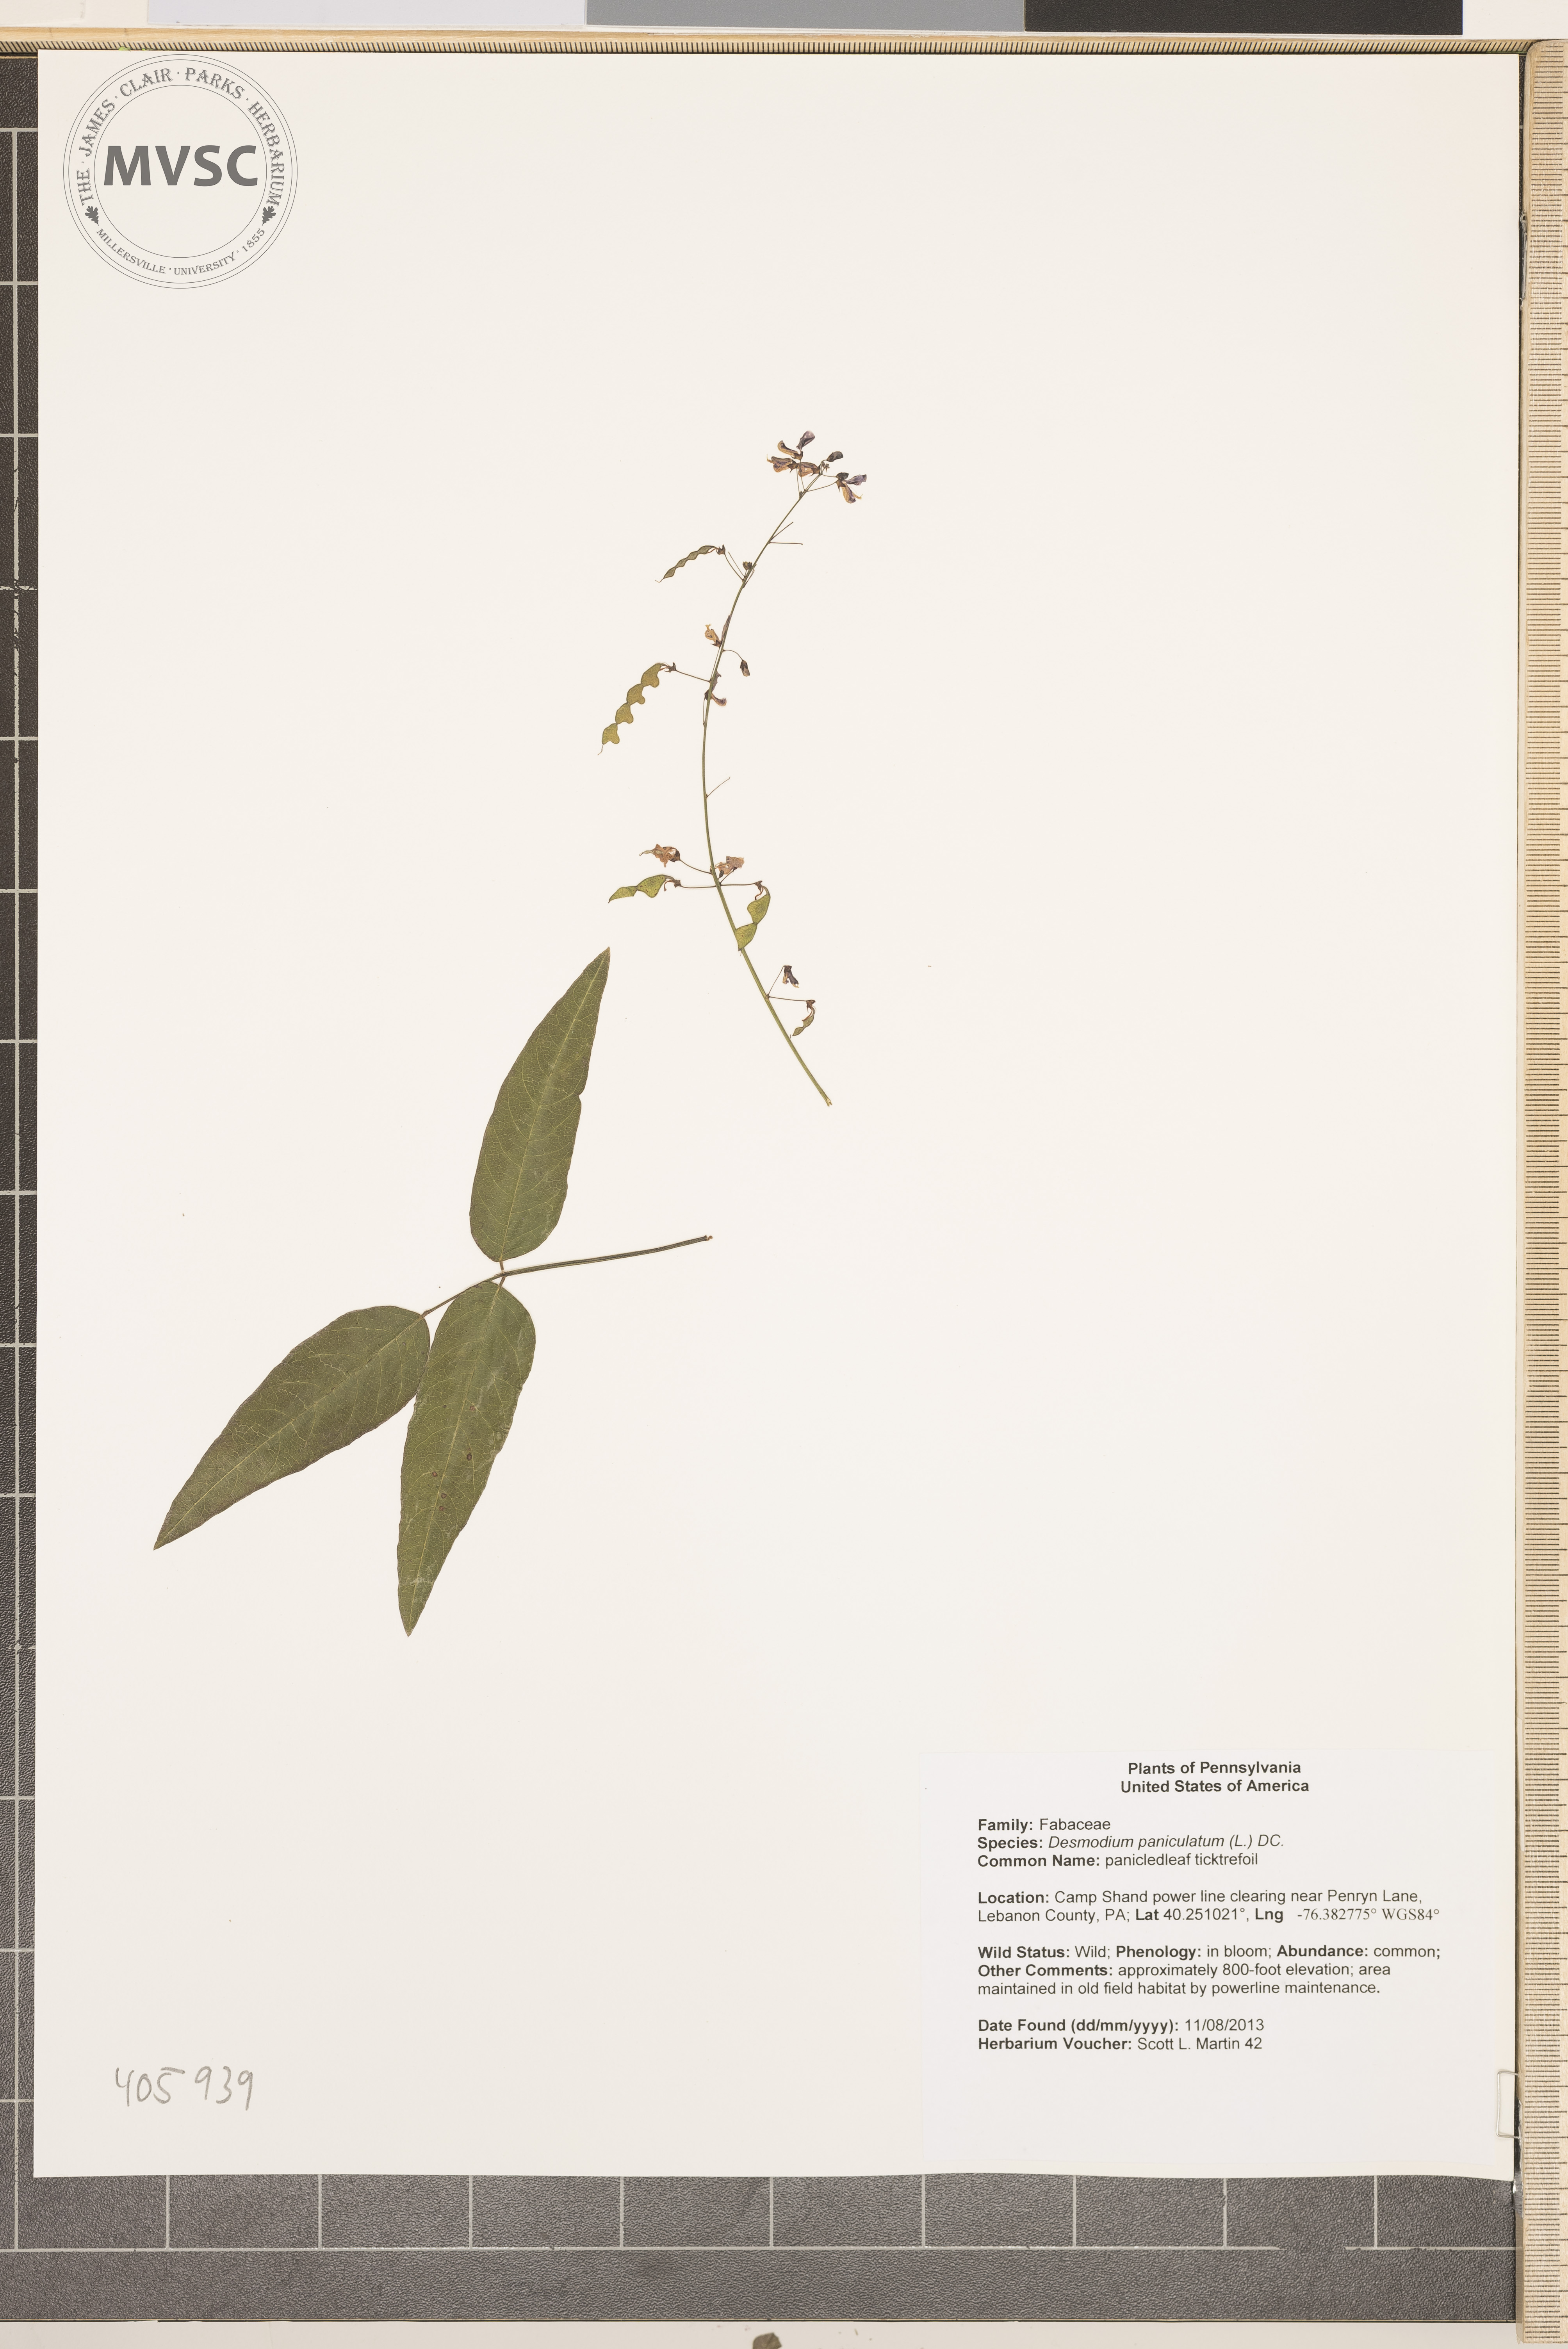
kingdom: Plantae
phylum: Tracheophyta
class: Magnoliopsida
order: Fabales
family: Fabaceae
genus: Desmodium
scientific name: Desmodium paniculatum
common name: panicledleaf ticktrefoil
